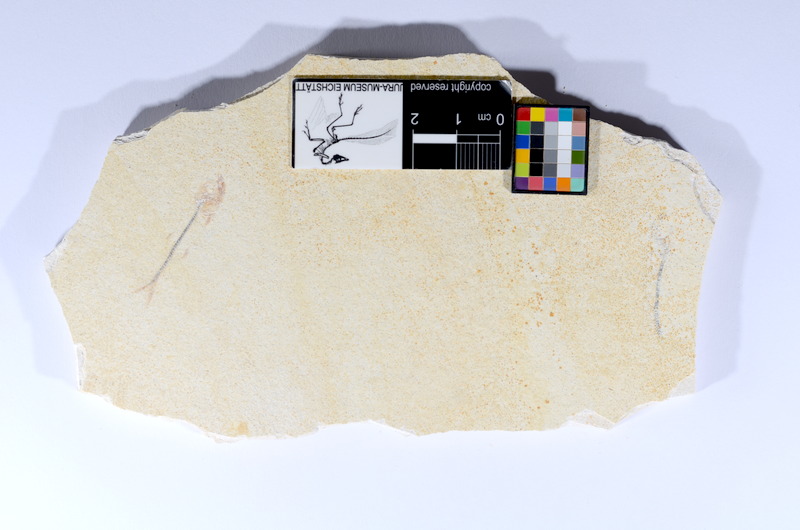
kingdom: Animalia
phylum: Chordata
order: Salmoniformes
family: Orthogonikleithridae
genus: Orthogonikleithrus
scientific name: Orthogonikleithrus hoelli
